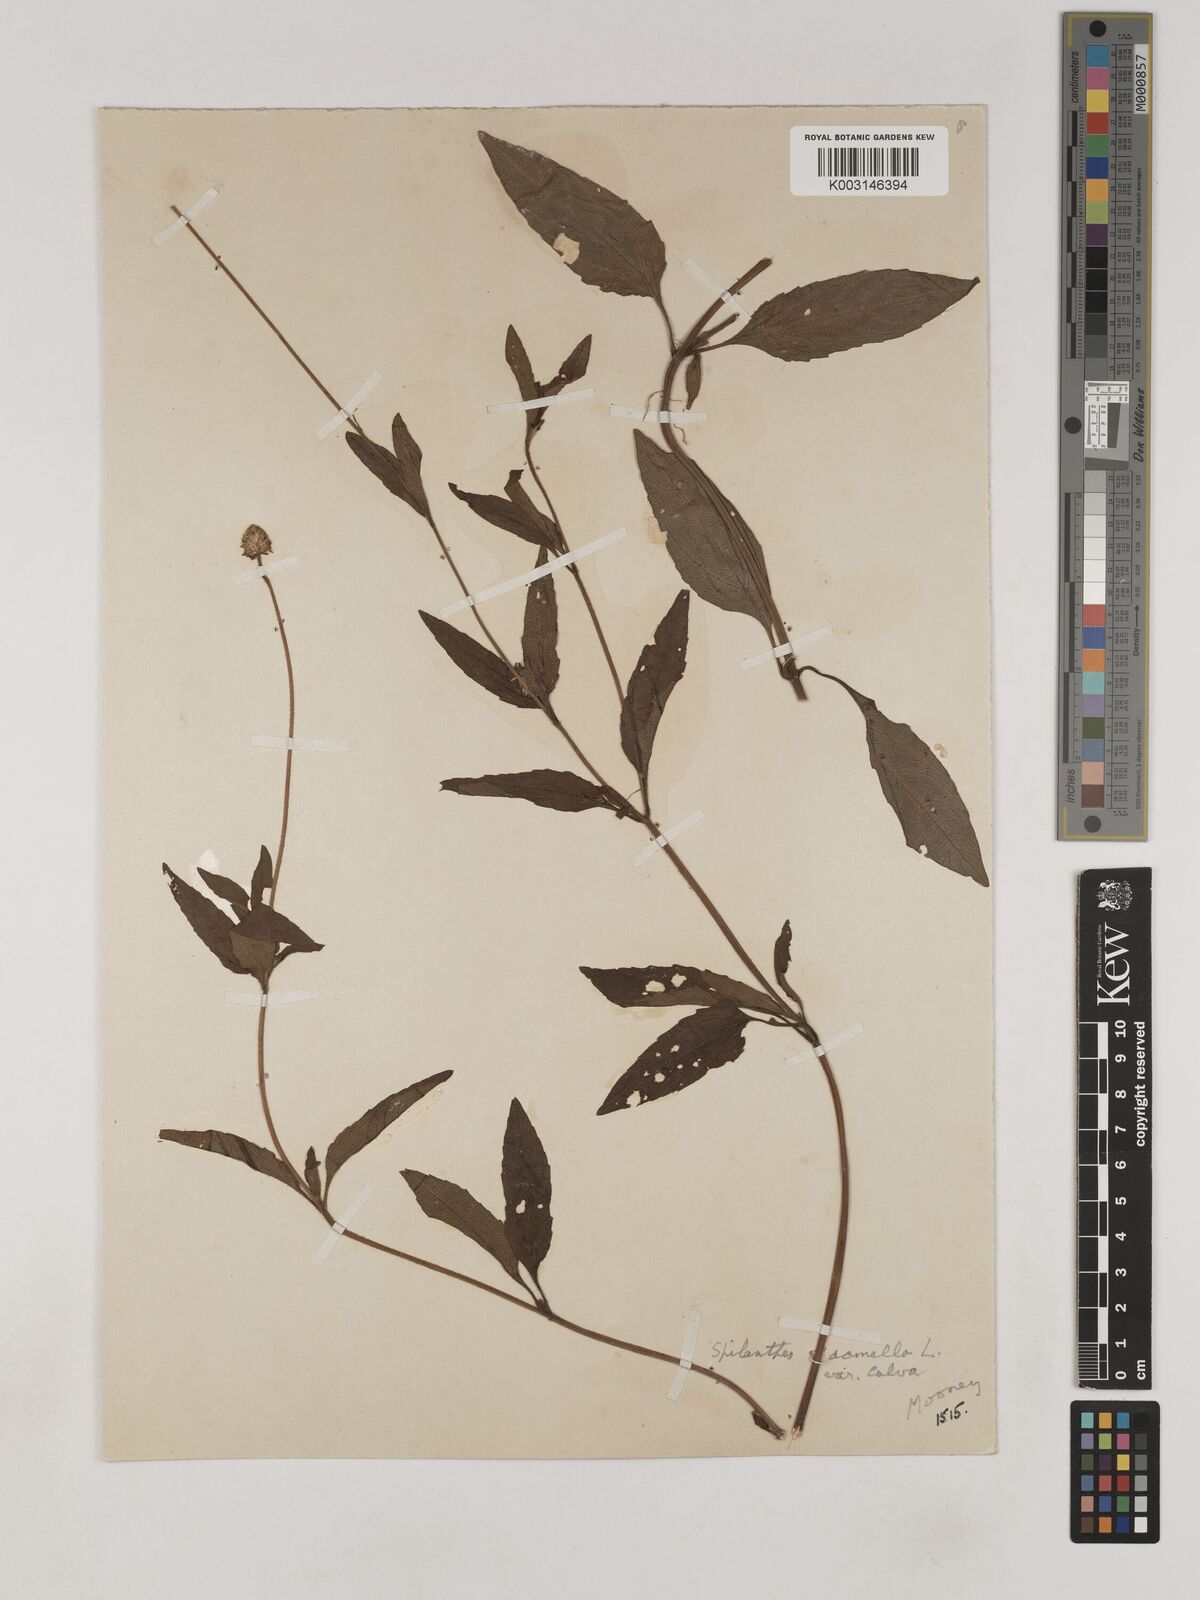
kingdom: Plantae
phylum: Tracheophyta
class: Magnoliopsida
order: Asterales
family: Asteraceae
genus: Acmella
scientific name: Acmella calva
